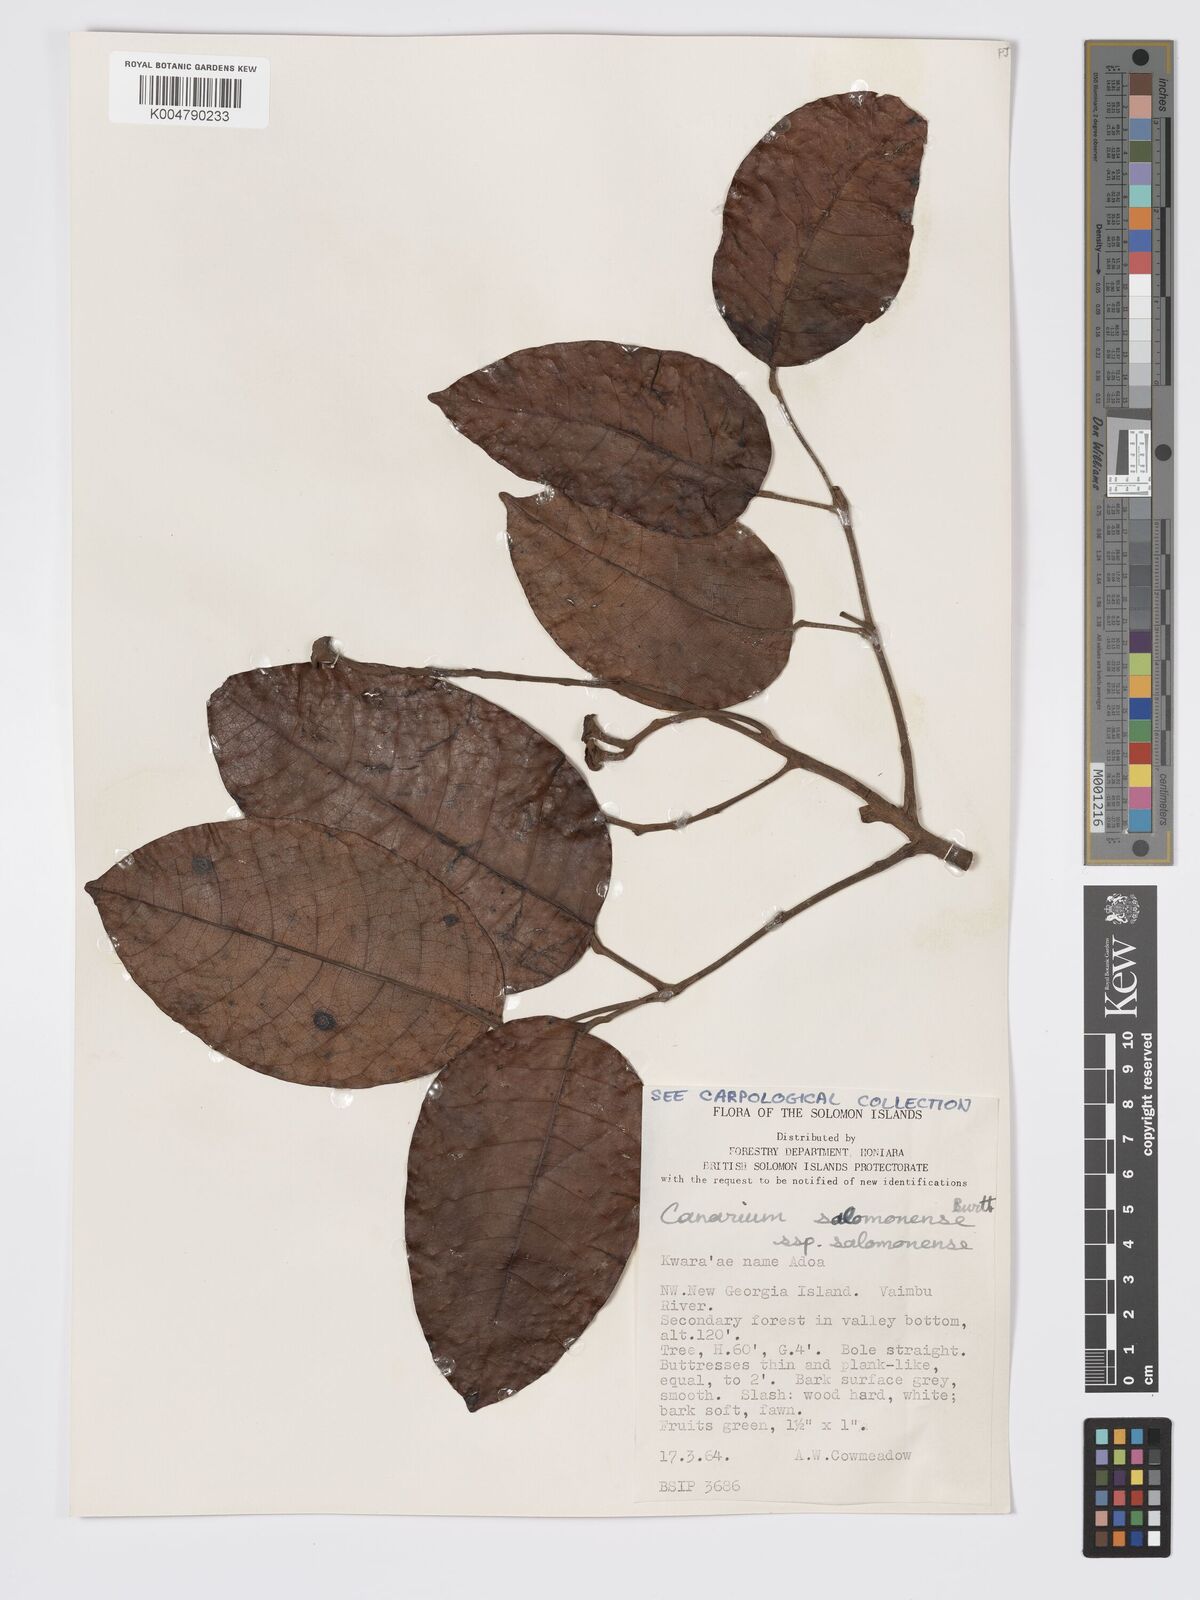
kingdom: Plantae
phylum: Tracheophyta
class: Magnoliopsida
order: Sapindales
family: Burseraceae
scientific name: Burseraceae
